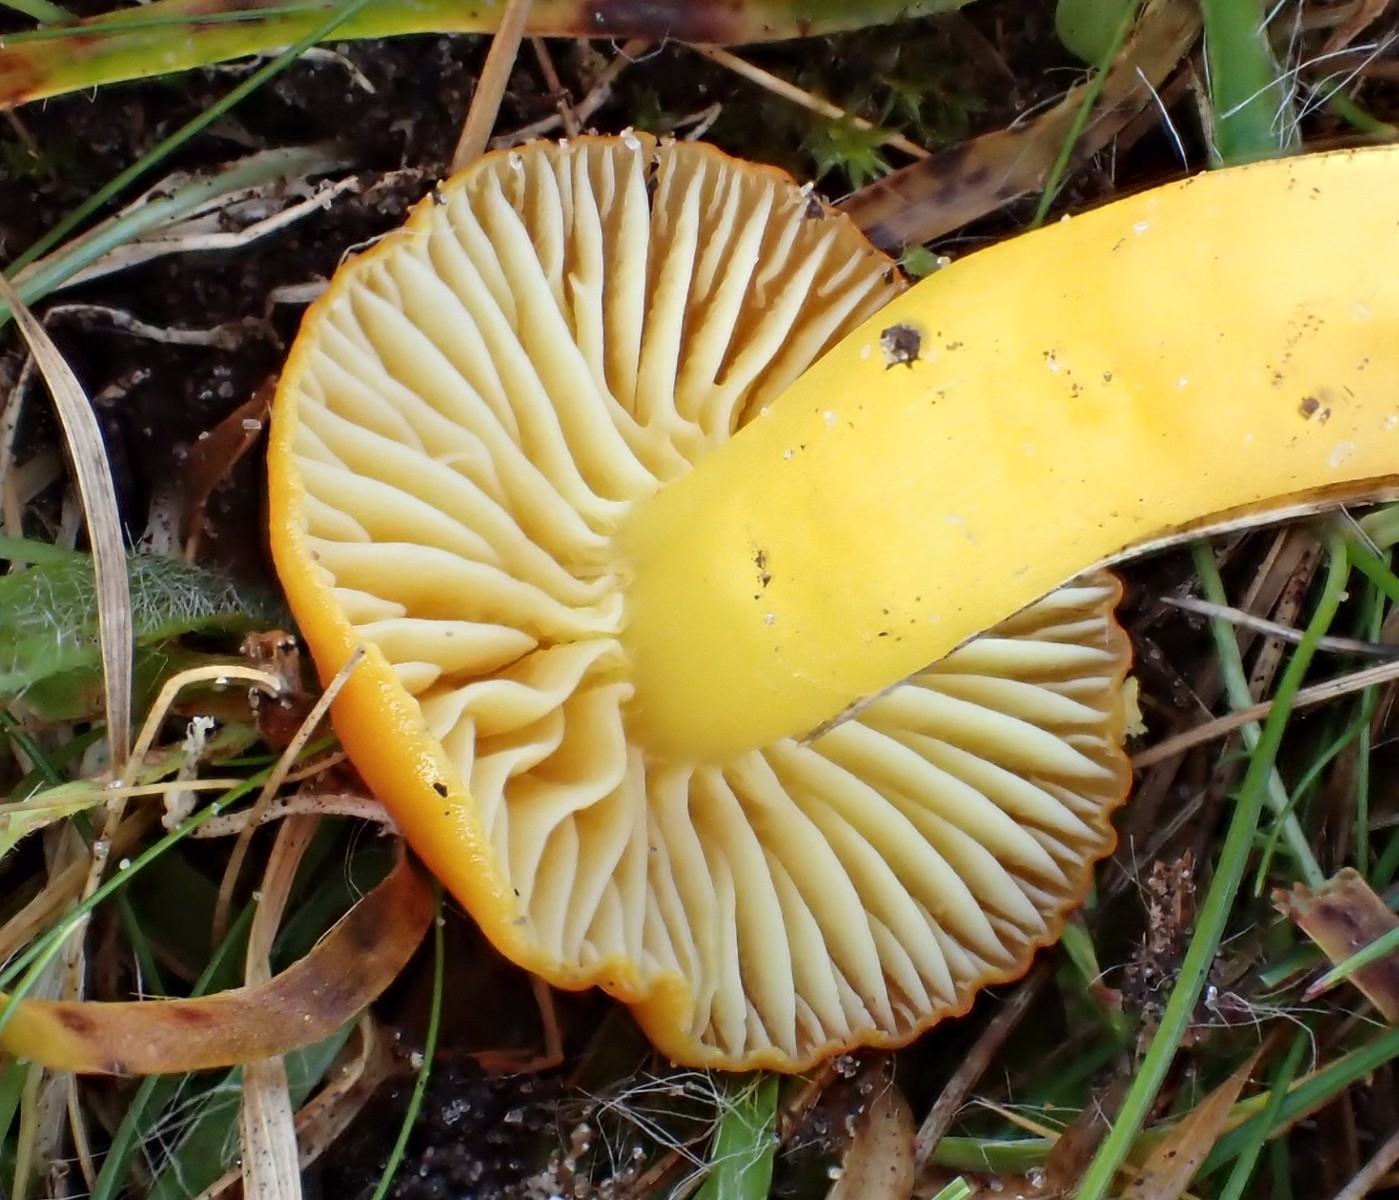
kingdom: Fungi
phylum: Basidiomycota
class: Agaricomycetes
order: Agaricales
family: Hygrophoraceae
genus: Hygrocybe
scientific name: Hygrocybe ceracea
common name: voksgul vokshat
